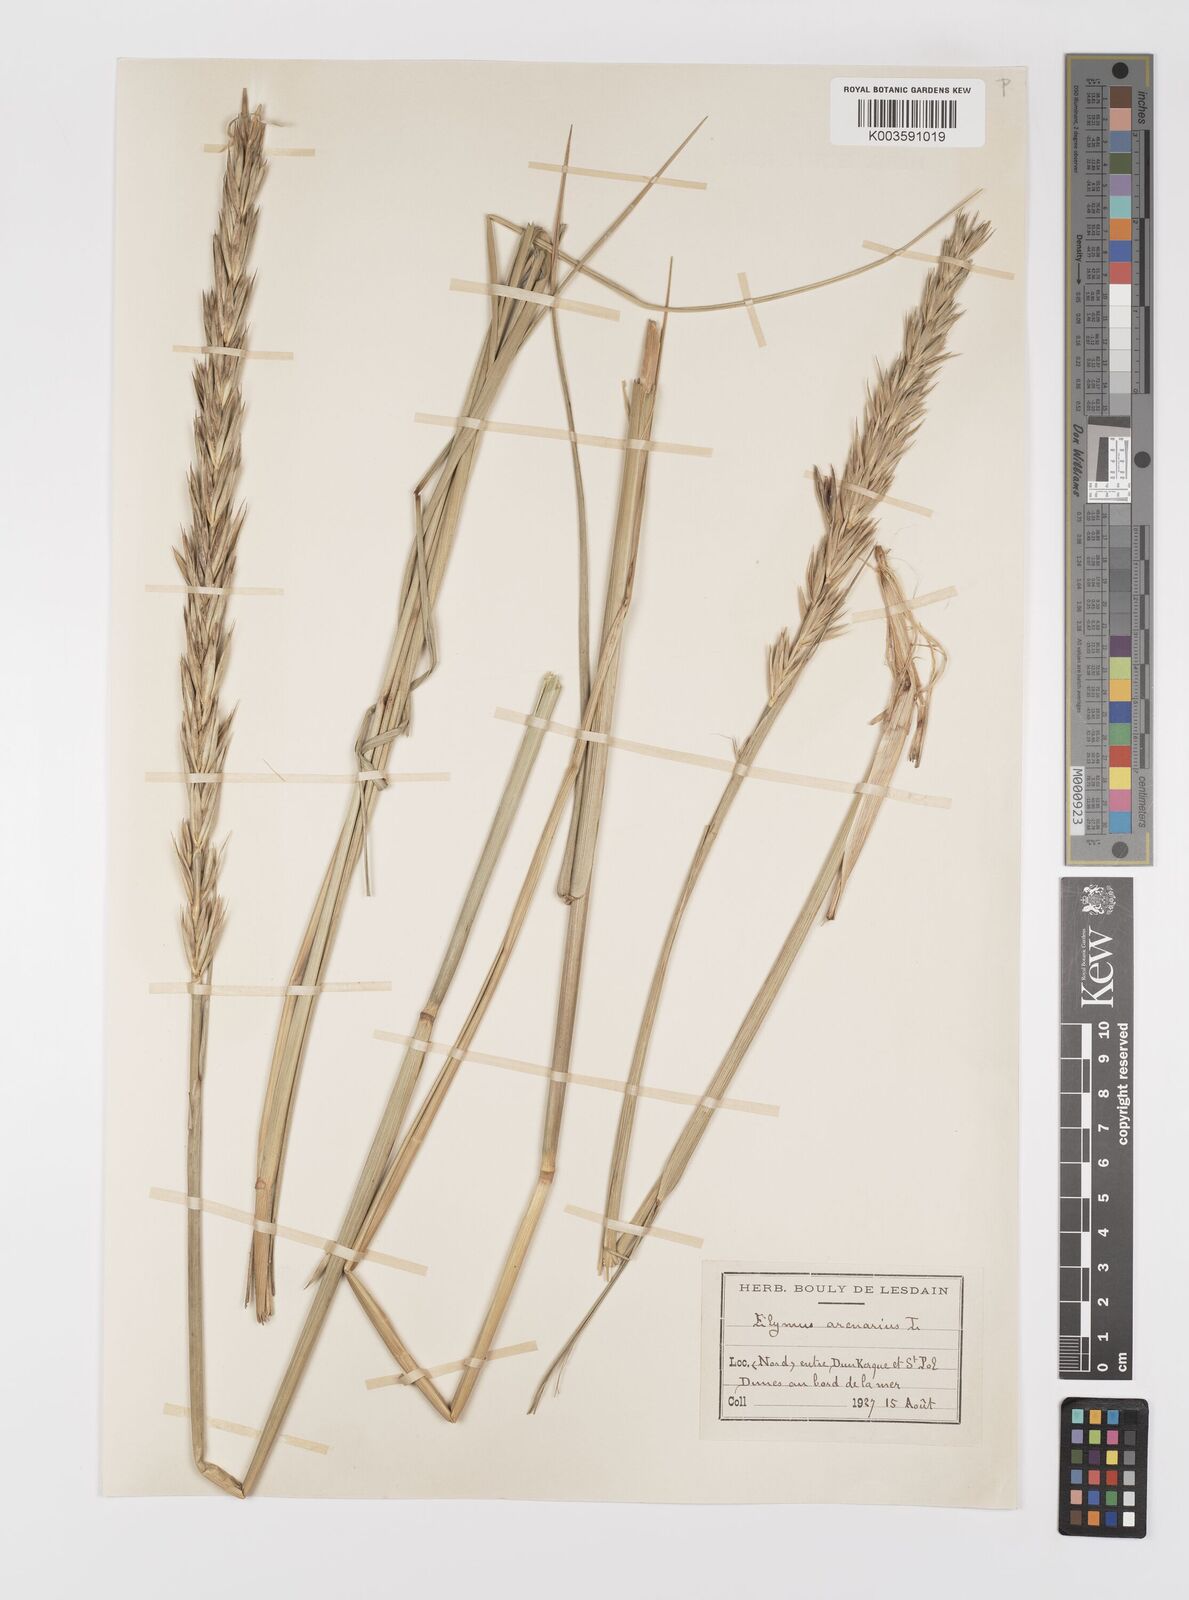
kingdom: Plantae
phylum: Tracheophyta
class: Liliopsida
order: Poales
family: Poaceae
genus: Leymus
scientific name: Leymus arenarius
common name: Lyme-grass
